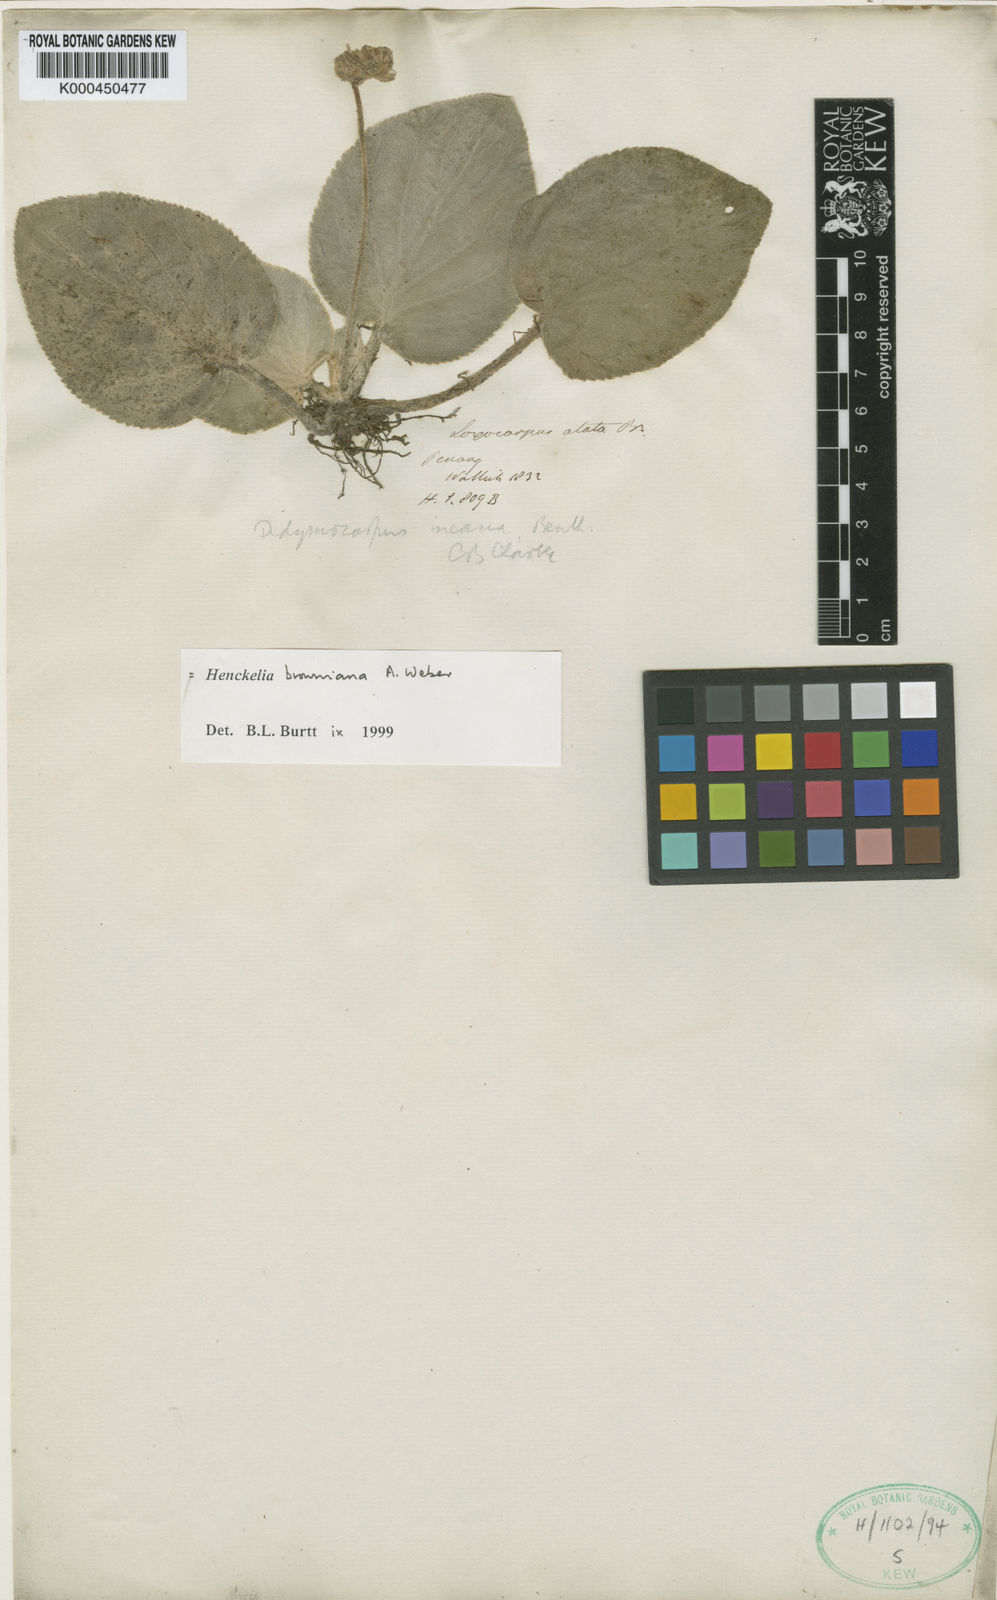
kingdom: Plantae
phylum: Tracheophyta
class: Magnoliopsida
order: Lamiales
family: Gesneriaceae
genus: Loxocarpus
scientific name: Loxocarpus incanus
